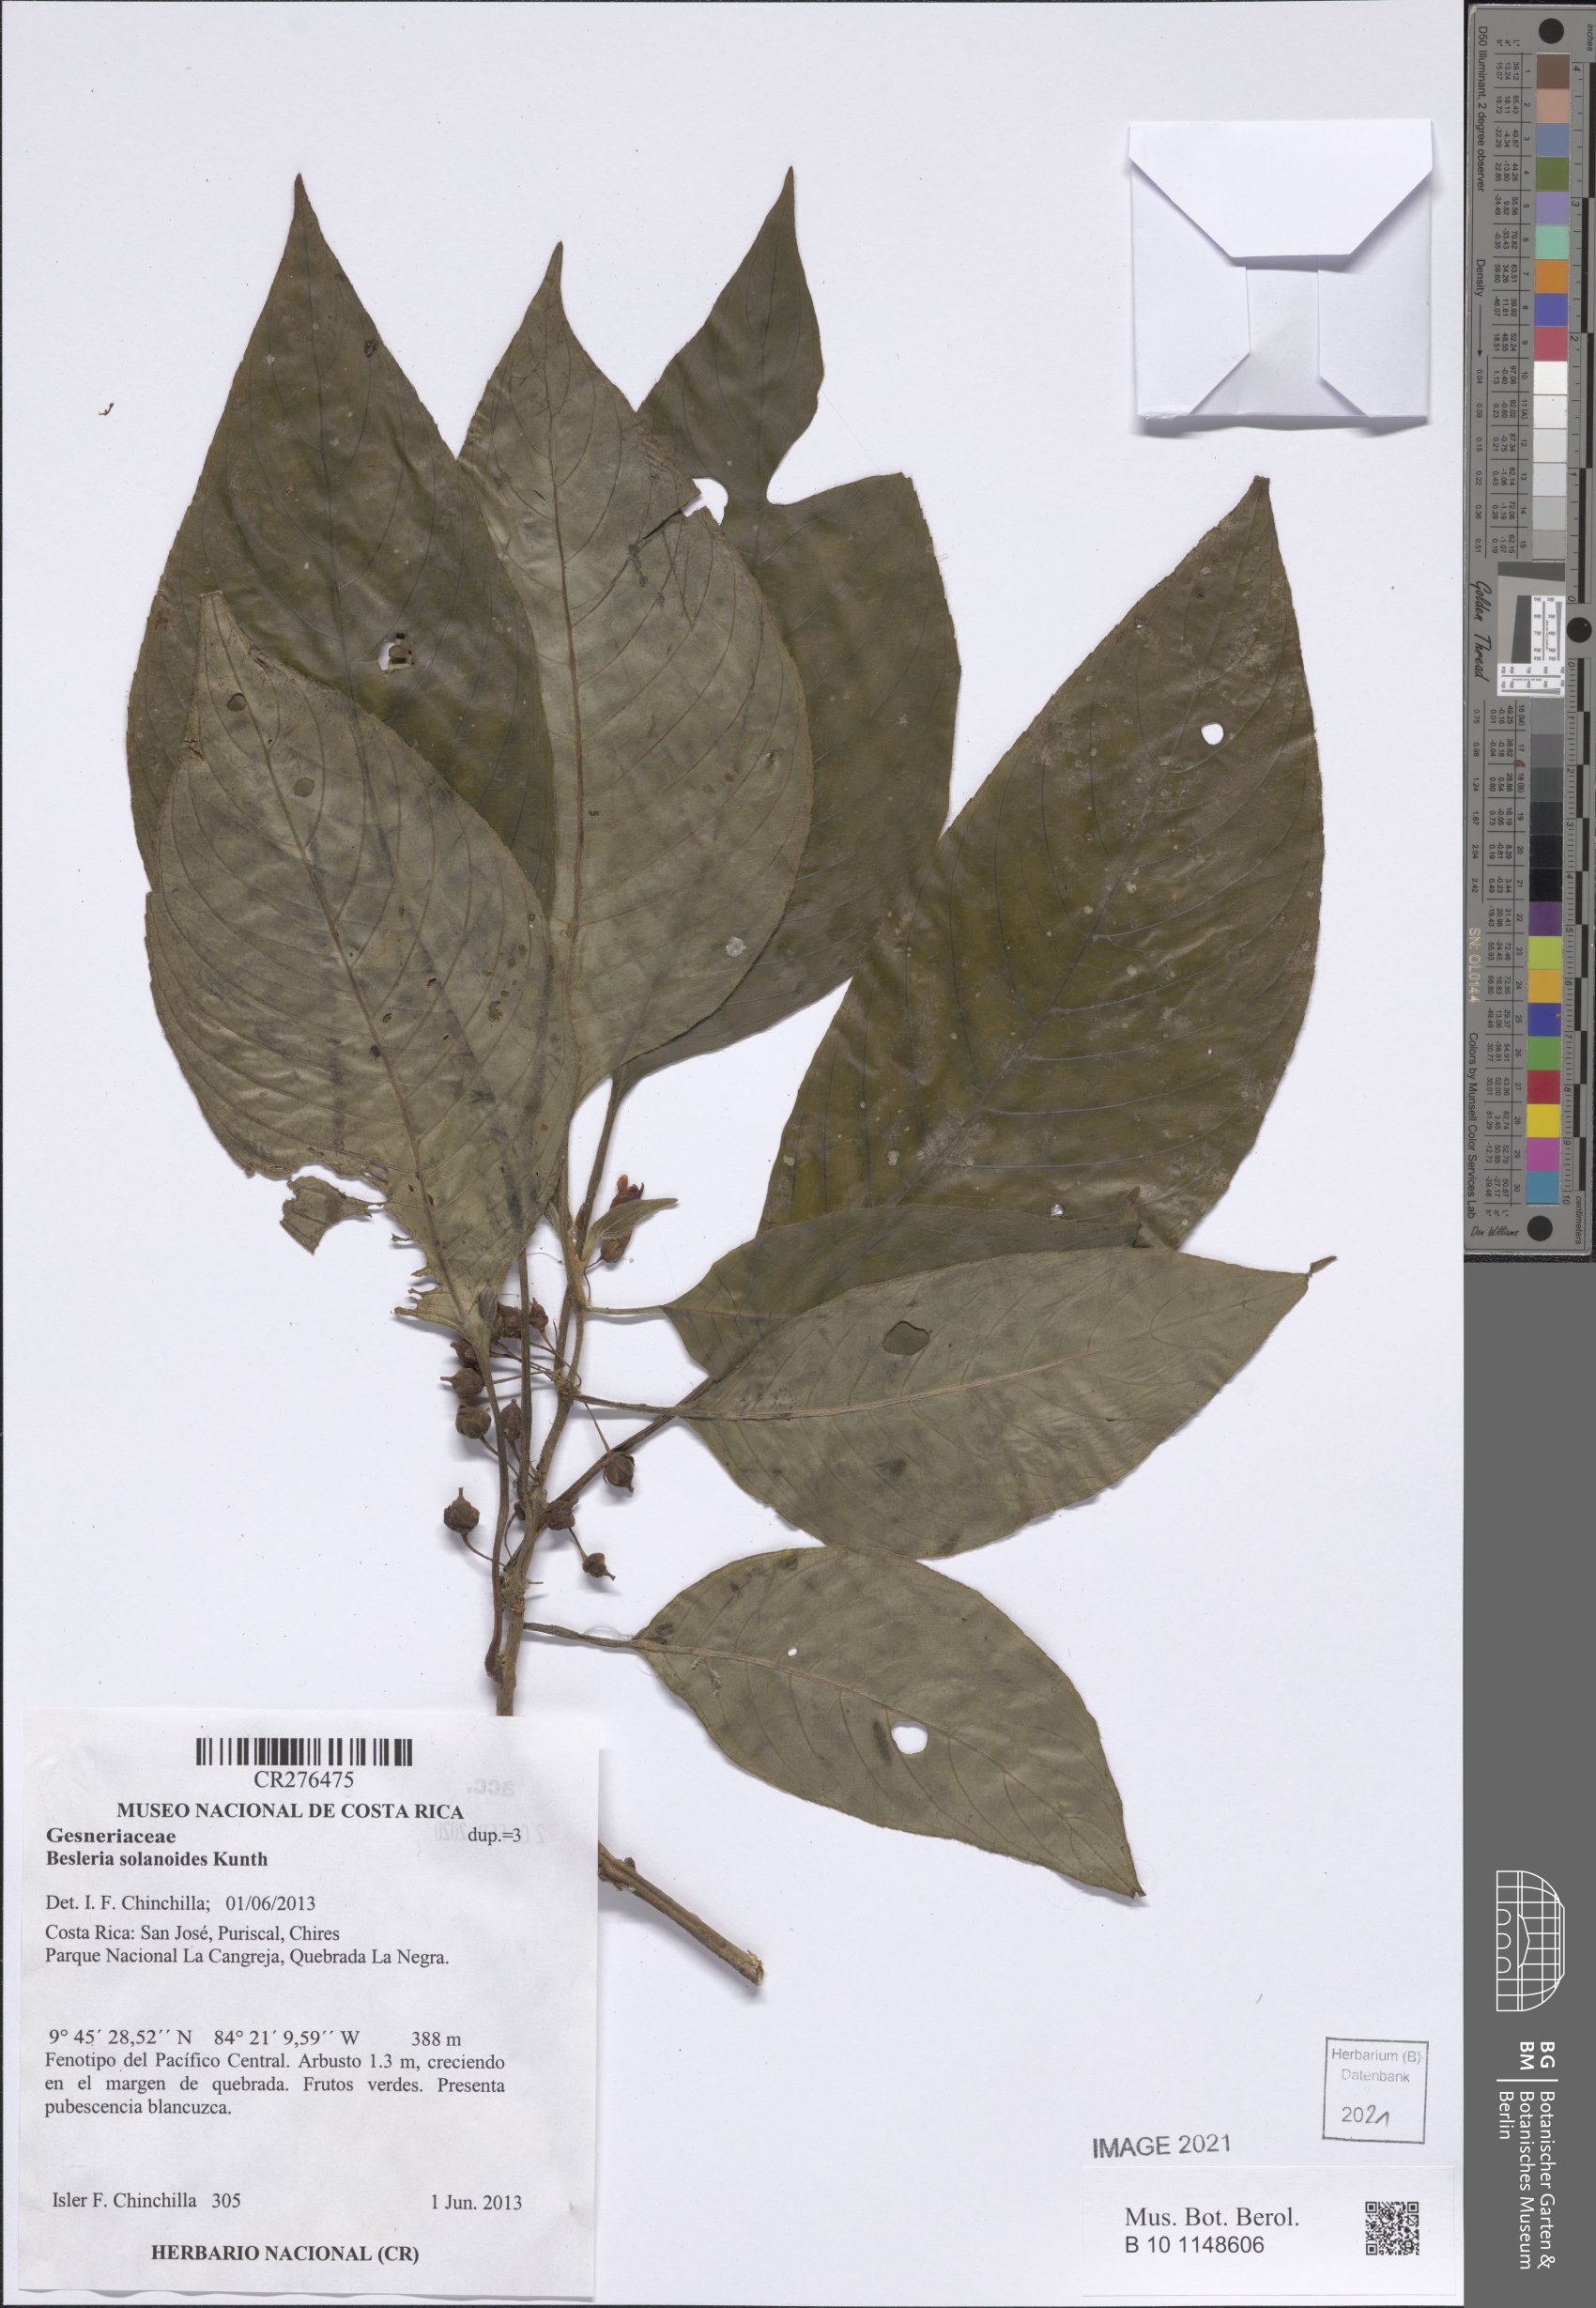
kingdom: Plantae
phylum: Tracheophyta
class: Magnoliopsida
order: Lamiales
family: Gesneriaceae
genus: Besleria
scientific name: Besleria solanoides
